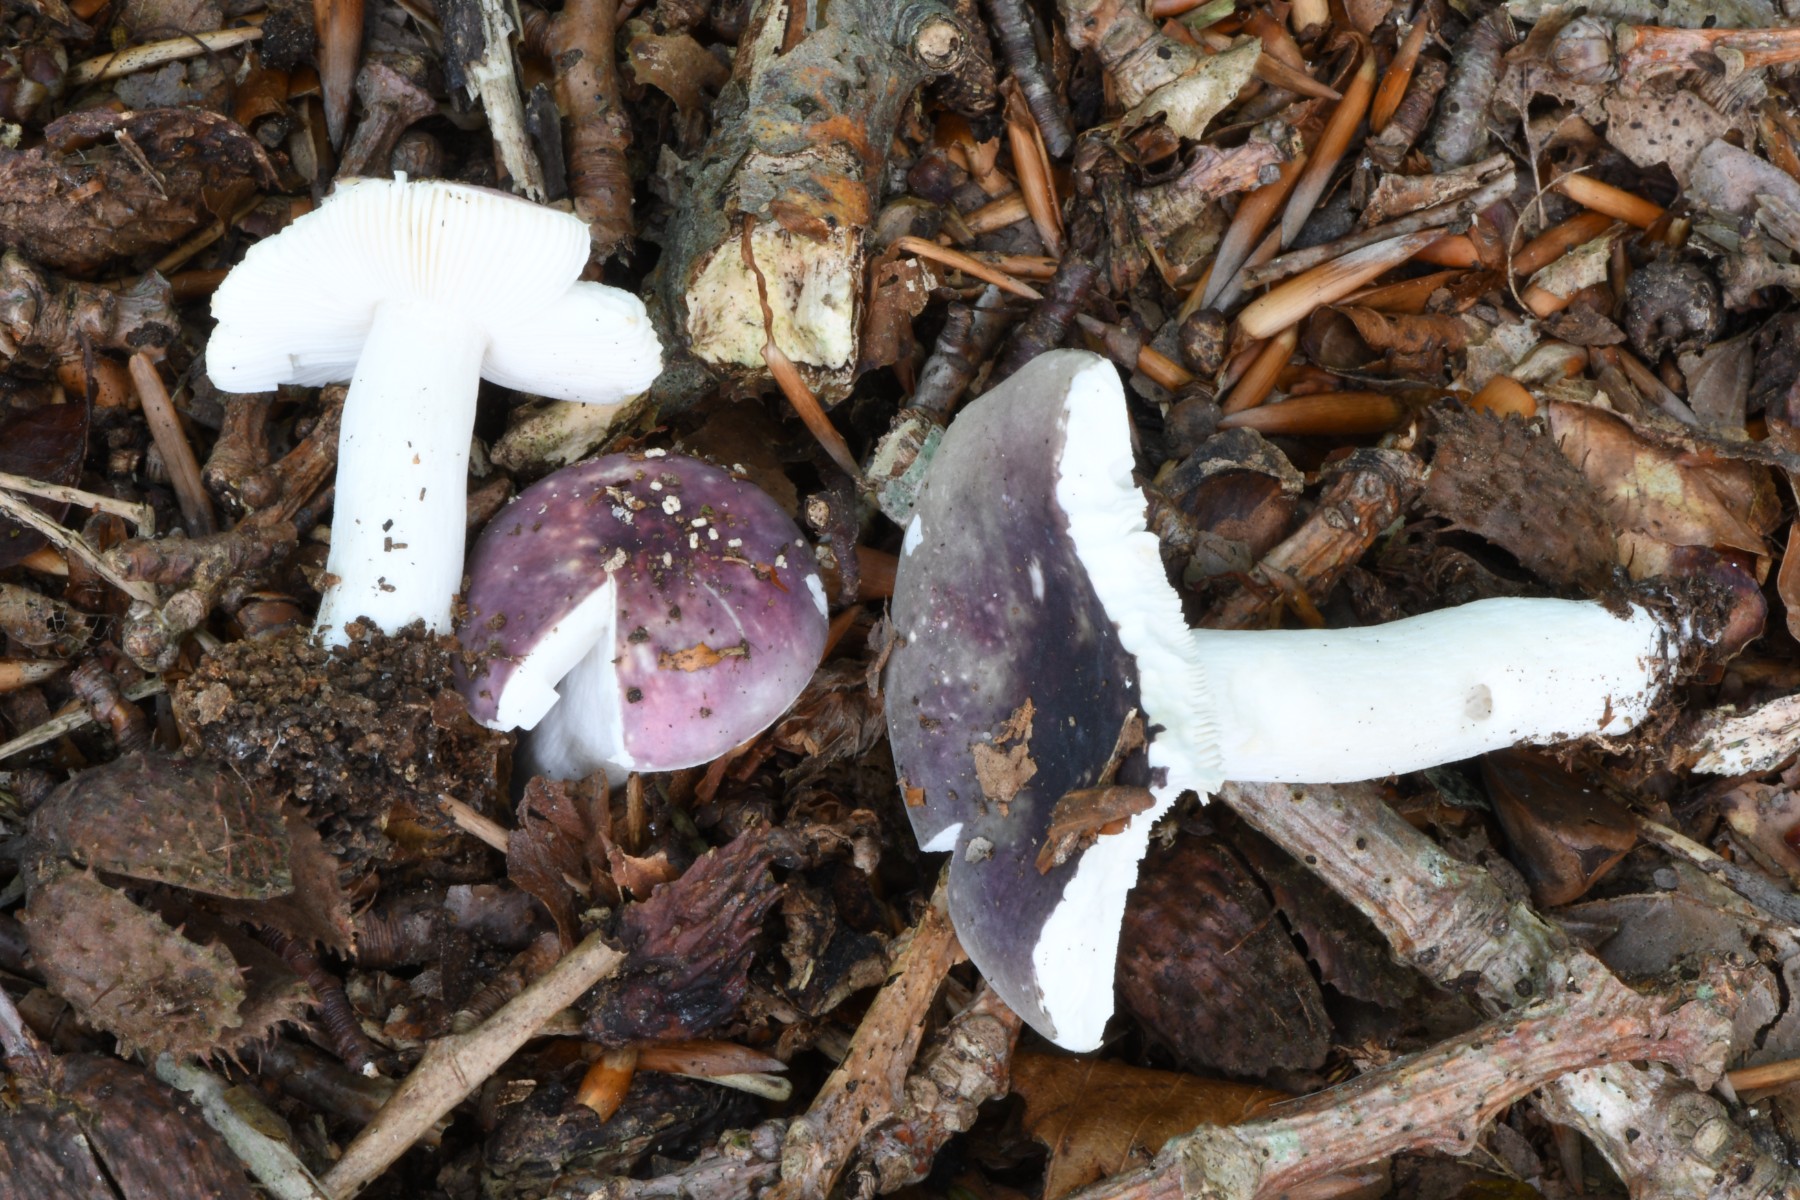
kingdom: Fungi
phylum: Basidiomycota
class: Agaricomycetes
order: Russulales
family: Russulaceae
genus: Russula
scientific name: Russula fragilis
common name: savbladet skørhat
